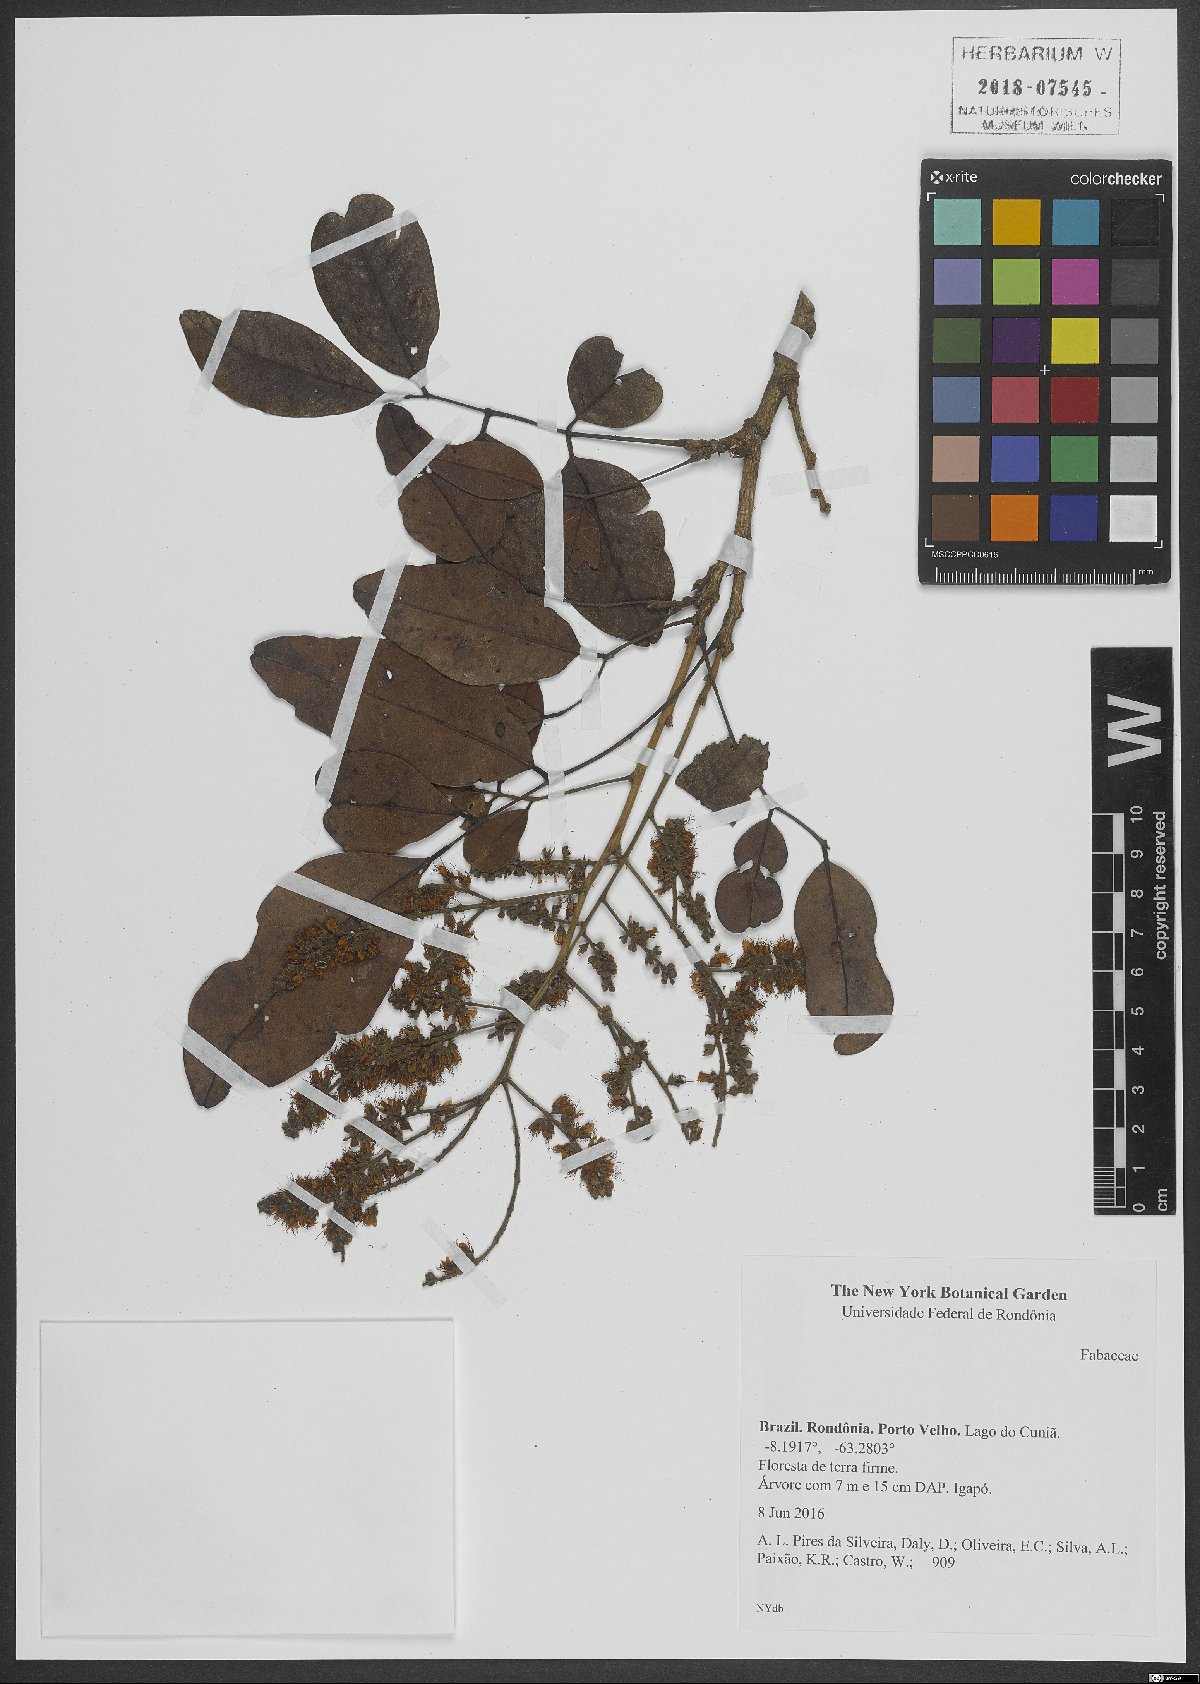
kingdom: Plantae
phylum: Tracheophyta
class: Magnoliopsida
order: Fabales
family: Fabaceae
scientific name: Fabaceae
